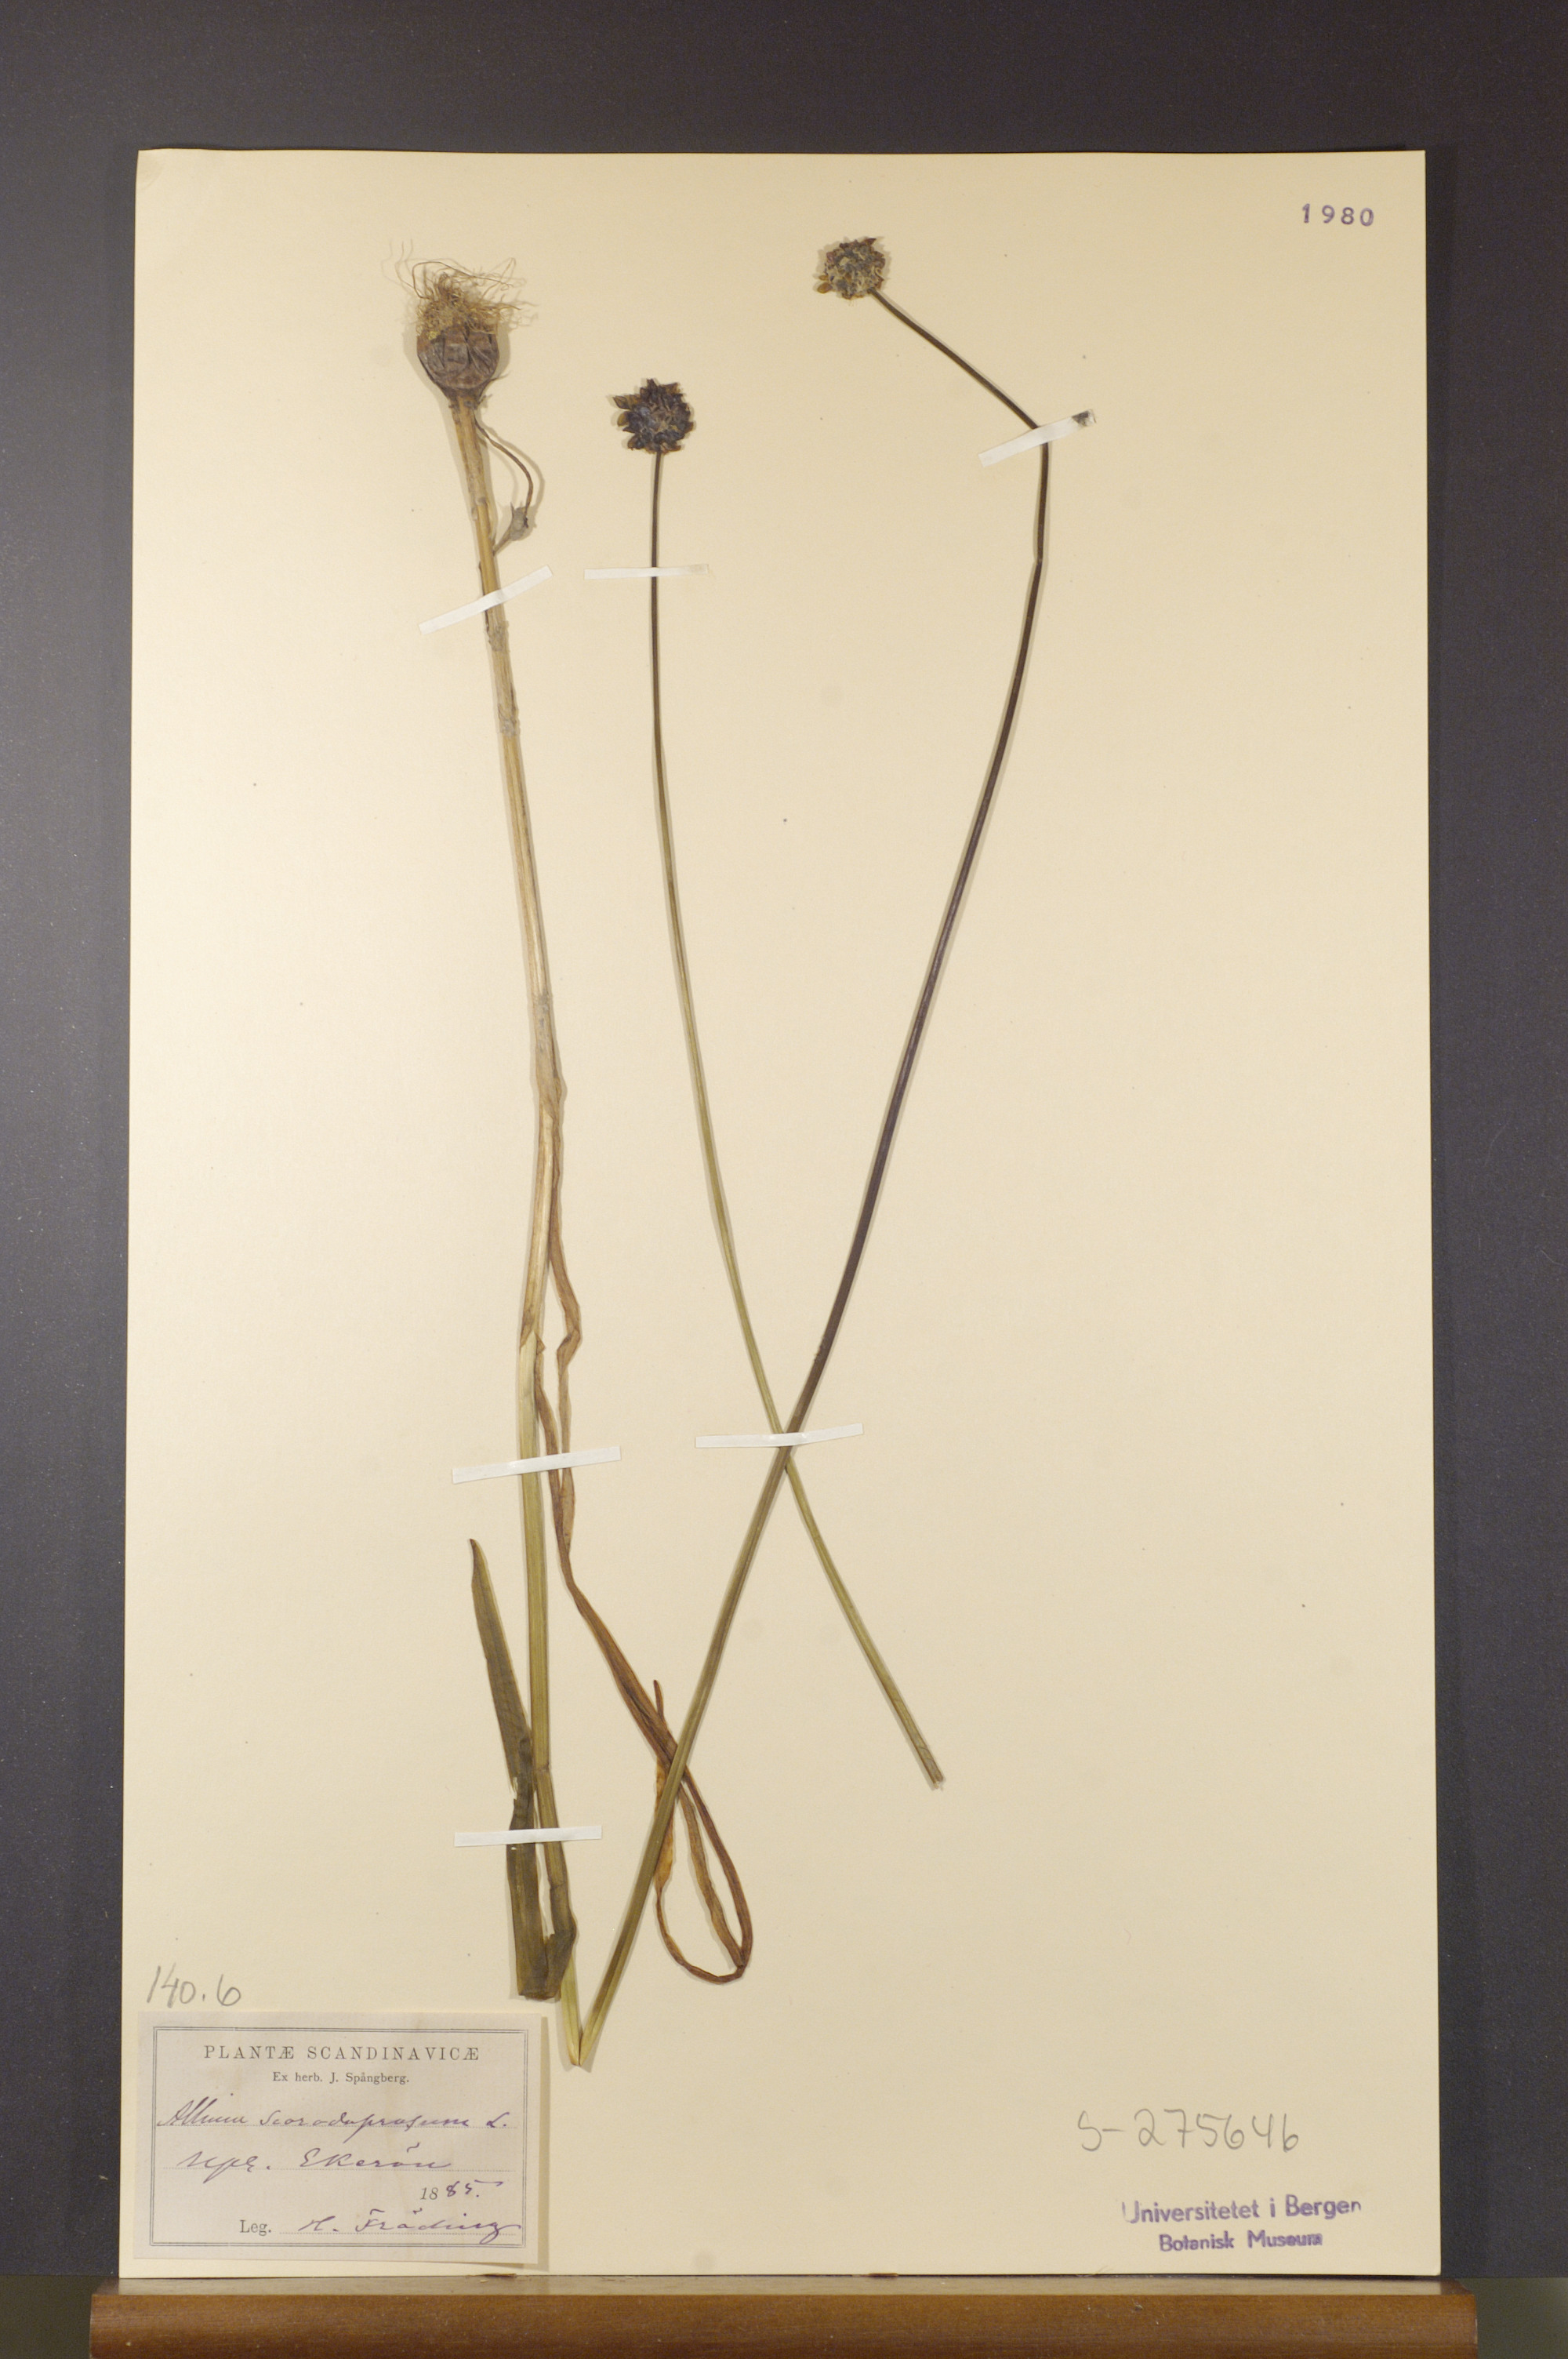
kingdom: Plantae
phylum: Tracheophyta
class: Liliopsida
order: Asparagales
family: Amaryllidaceae
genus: Allium
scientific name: Allium schoenoprasum
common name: Chives
